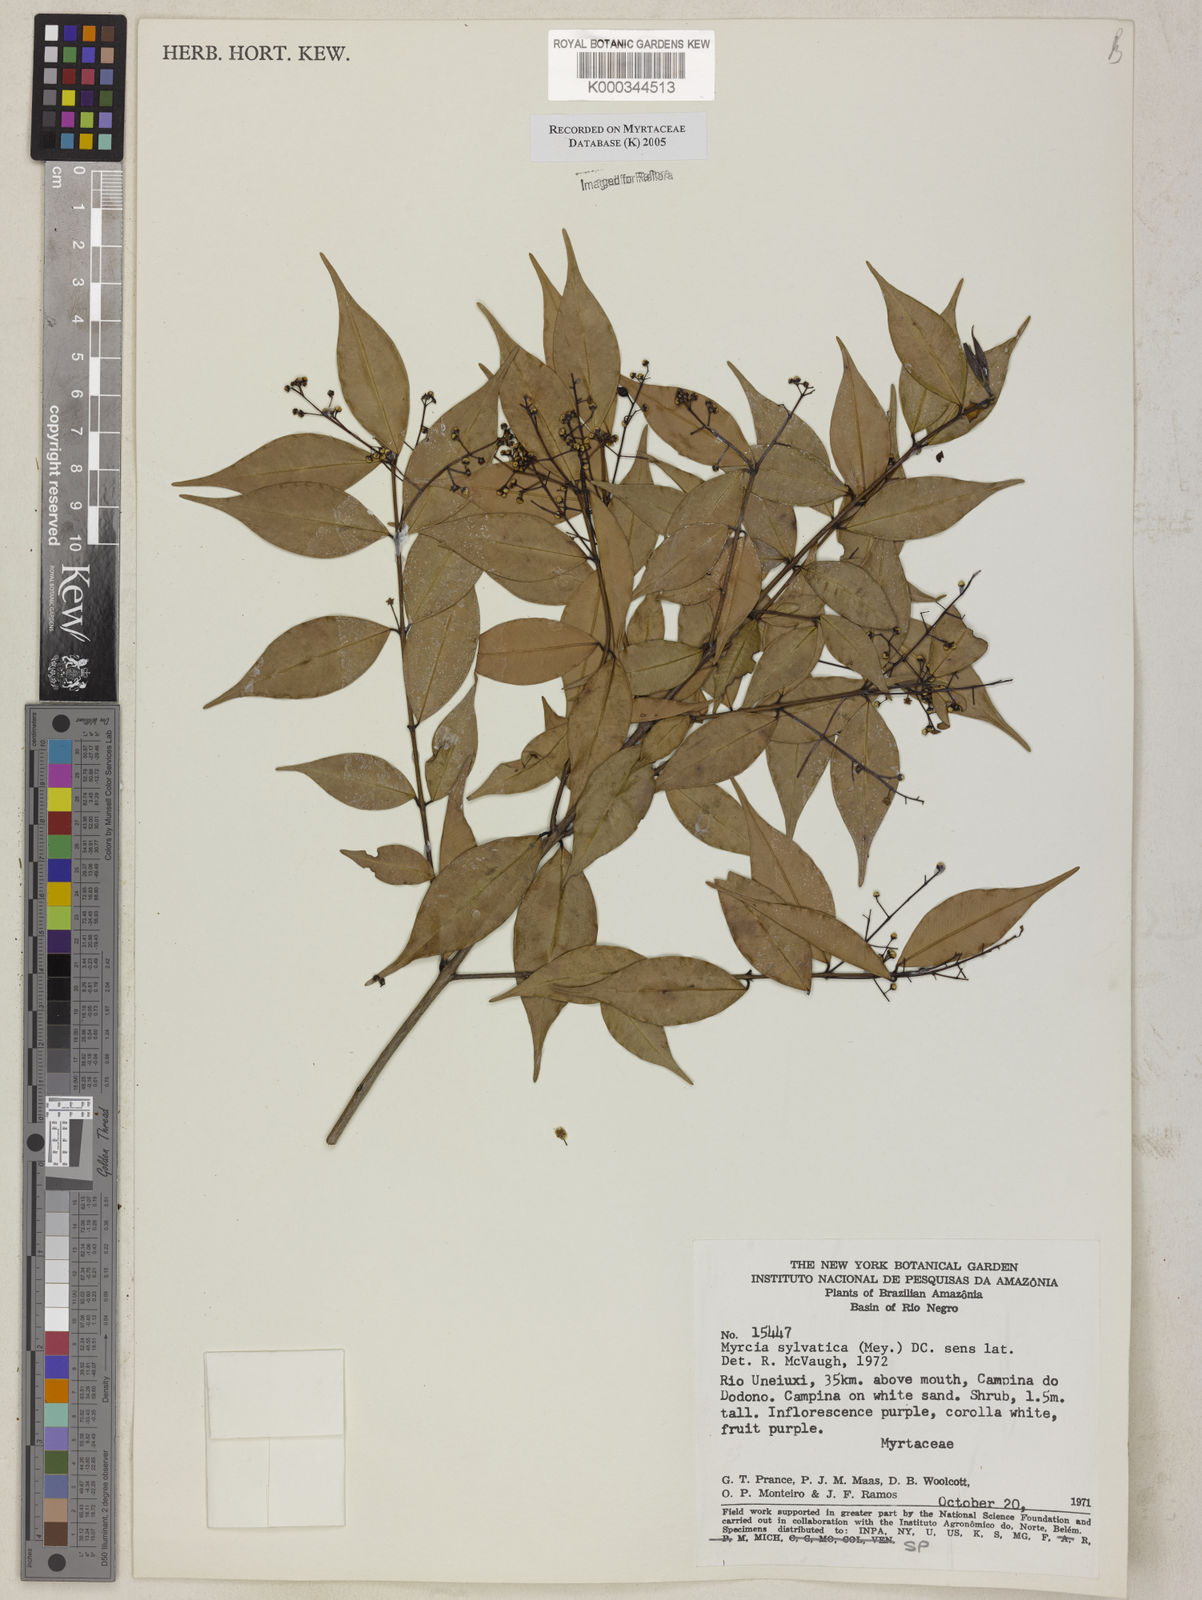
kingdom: Plantae
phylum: Tracheophyta
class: Magnoliopsida
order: Myrtales
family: Myrtaceae
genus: Myrcia
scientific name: Myrcia sylvatica
